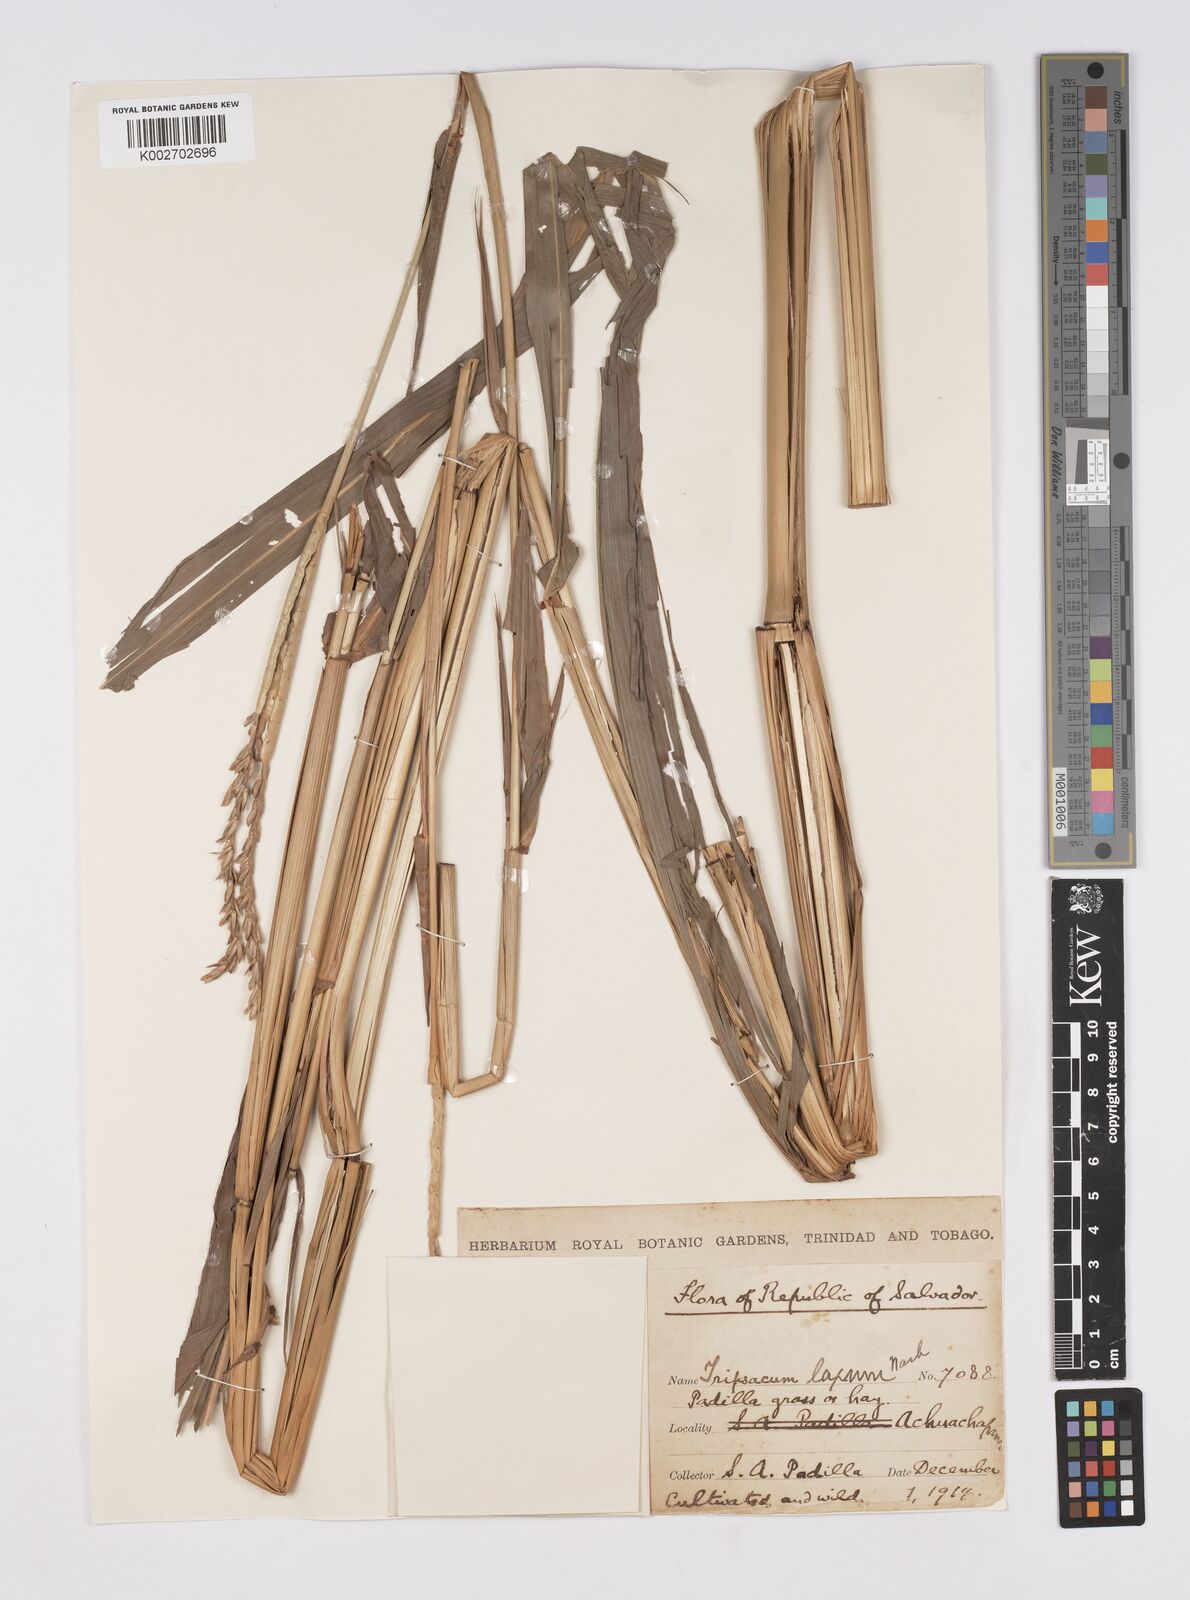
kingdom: Plantae
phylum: Tracheophyta
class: Liliopsida
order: Poales
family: Poaceae
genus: Tripsacum
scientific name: Tripsacum andersonii
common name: Guatemalan grass
